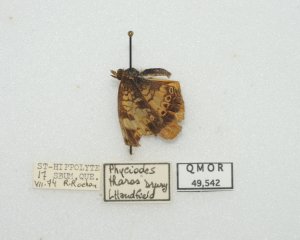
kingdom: Animalia
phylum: Arthropoda
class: Insecta
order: Lepidoptera
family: Nymphalidae
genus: Phyciodes
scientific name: Phyciodes tharos
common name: Northern Crescent
